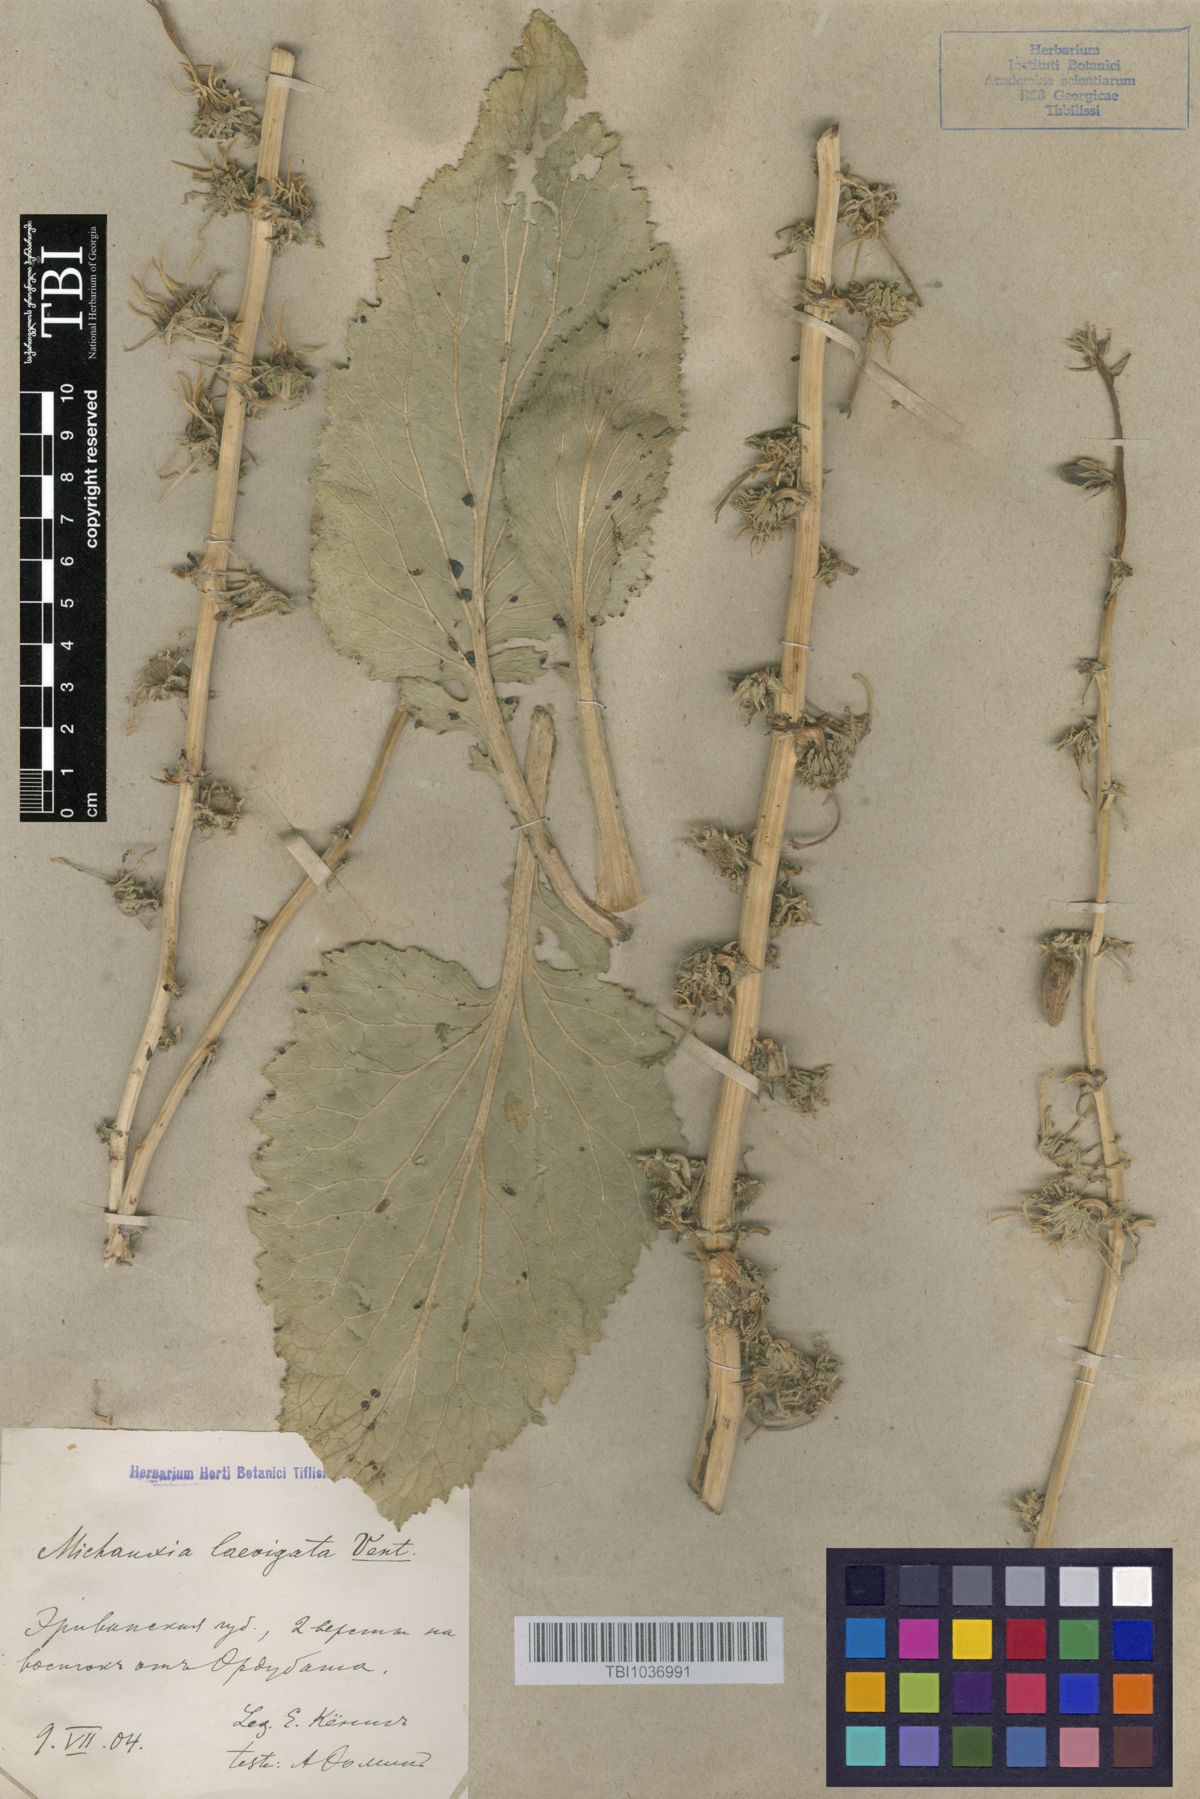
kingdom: Plantae
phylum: Tracheophyta
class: Magnoliopsida
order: Asterales
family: Campanulaceae
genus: Michauxia
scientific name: Michauxia laevigata
